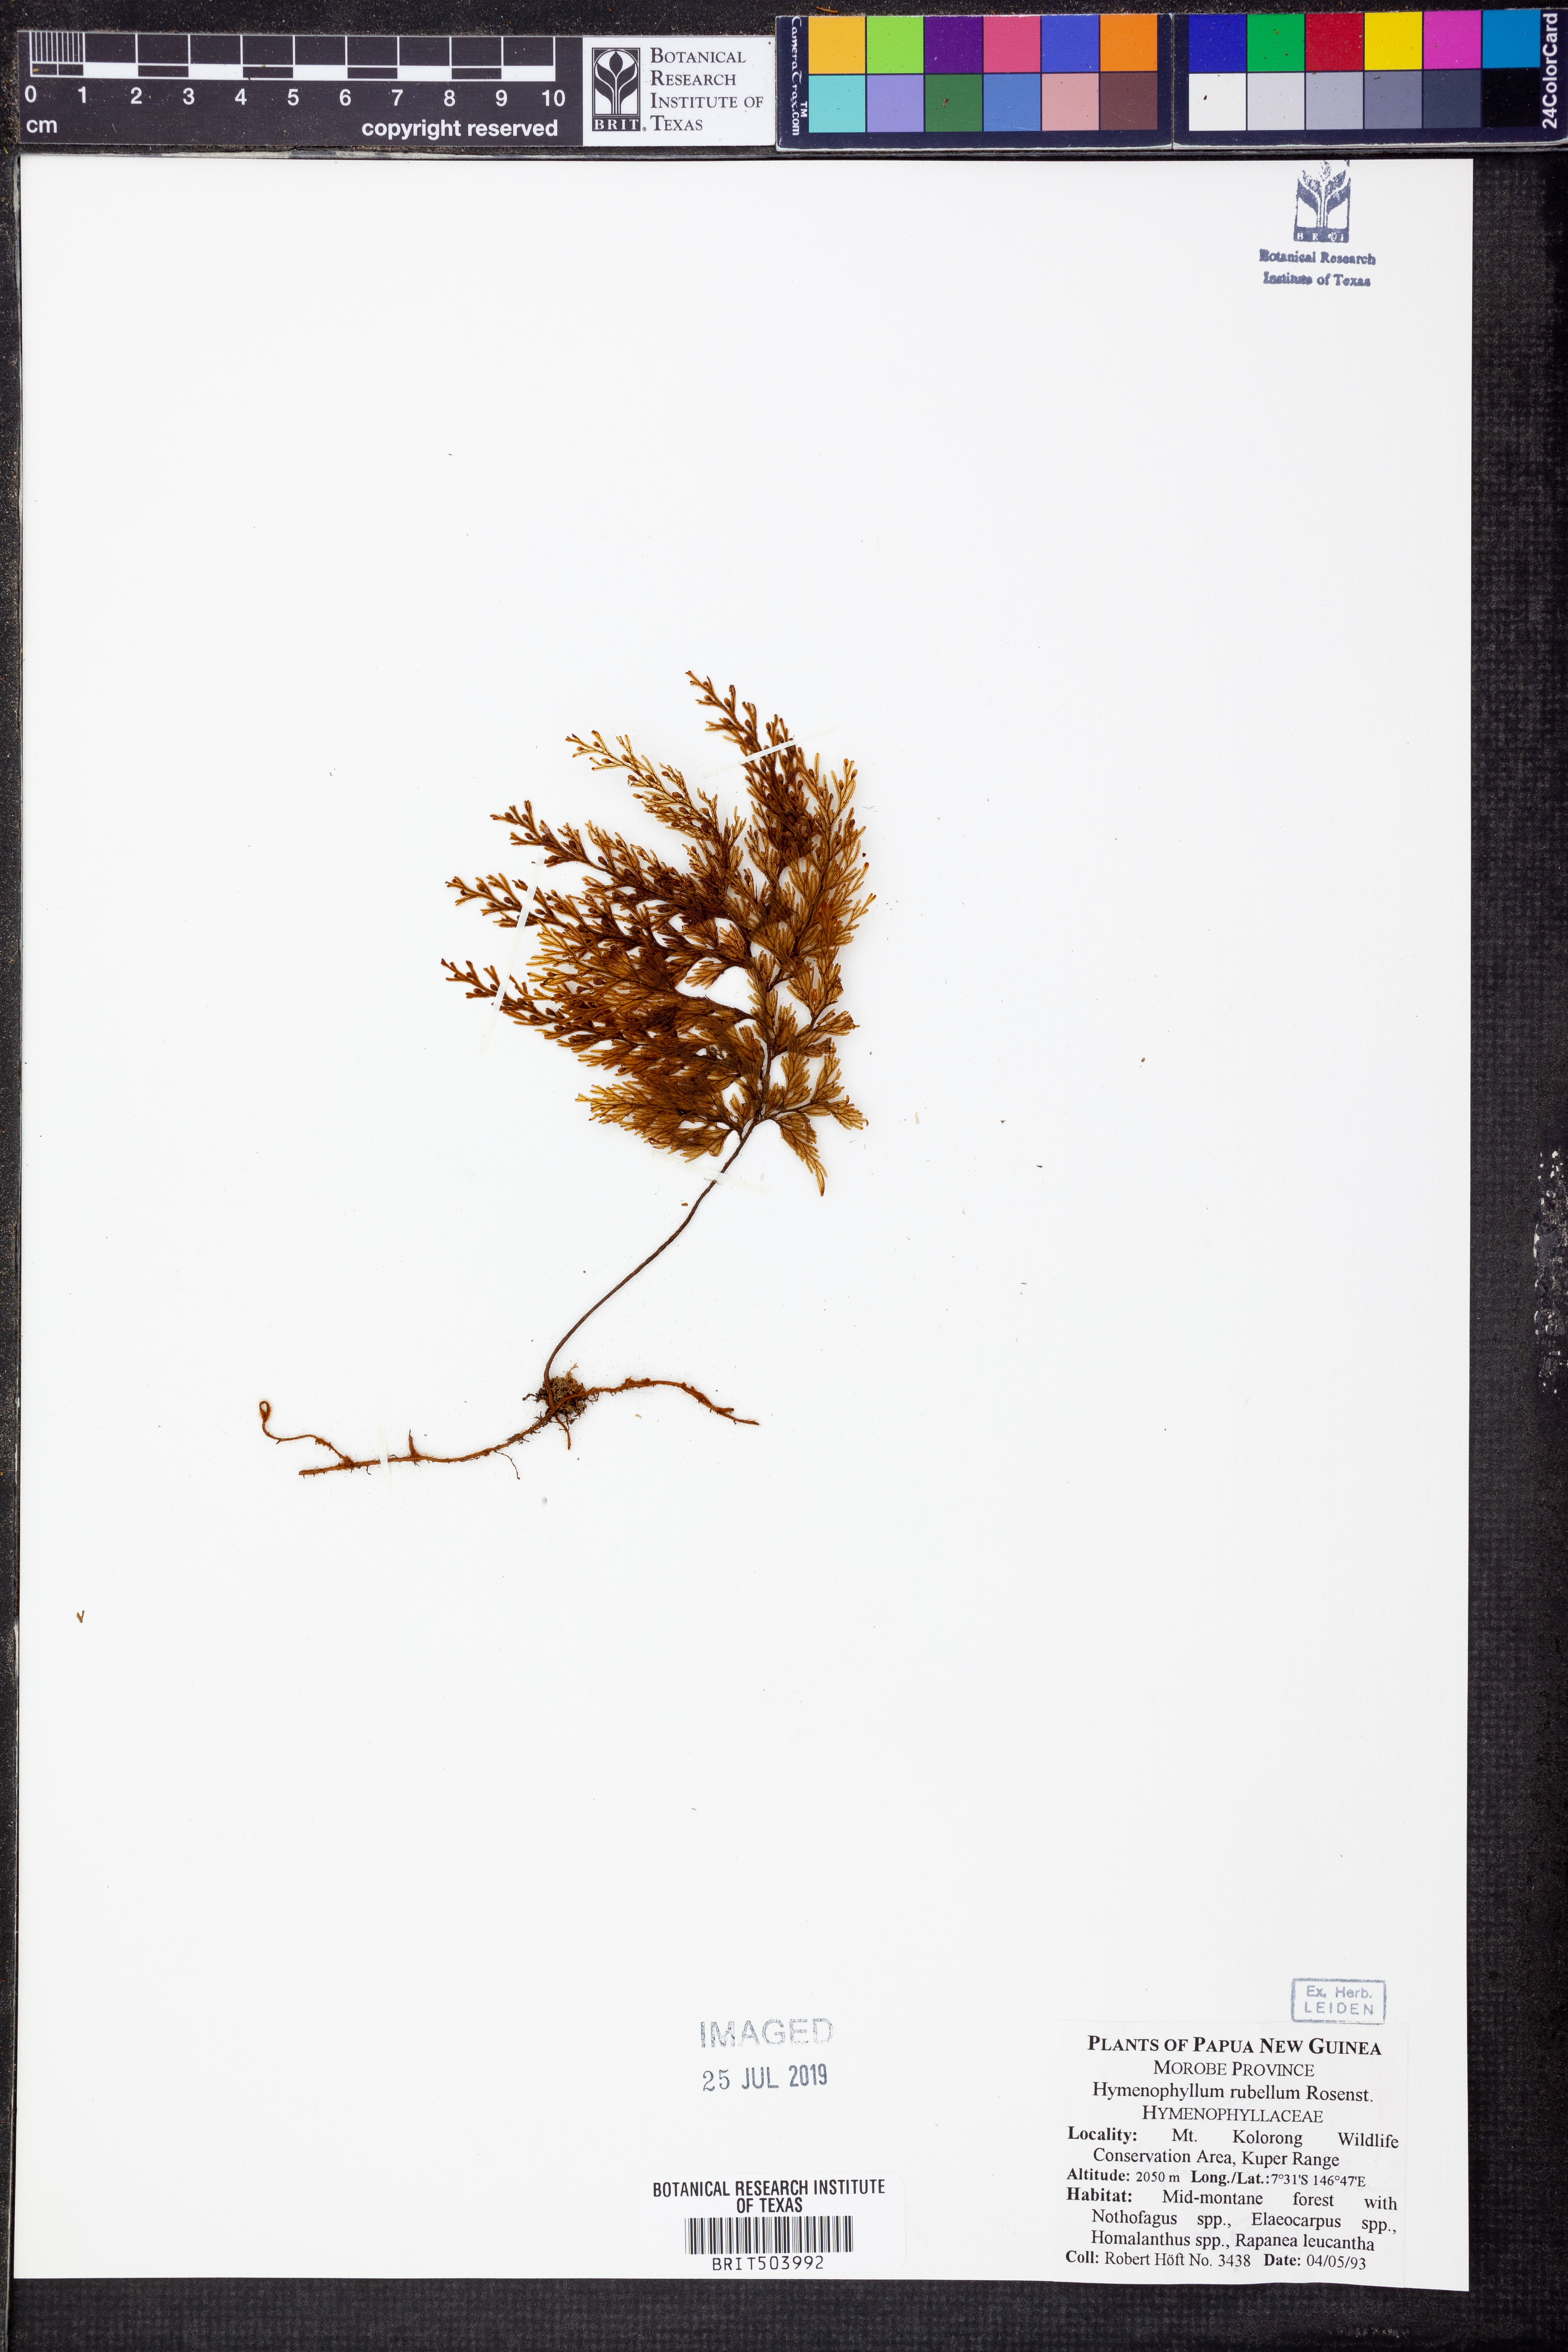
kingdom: Plantae
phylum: Tracheophyta
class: Polypodiopsida
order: Hymenophyllales
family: Hymenophyllaceae
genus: Hymenophyllum
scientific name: Hymenophyllum rubellum
